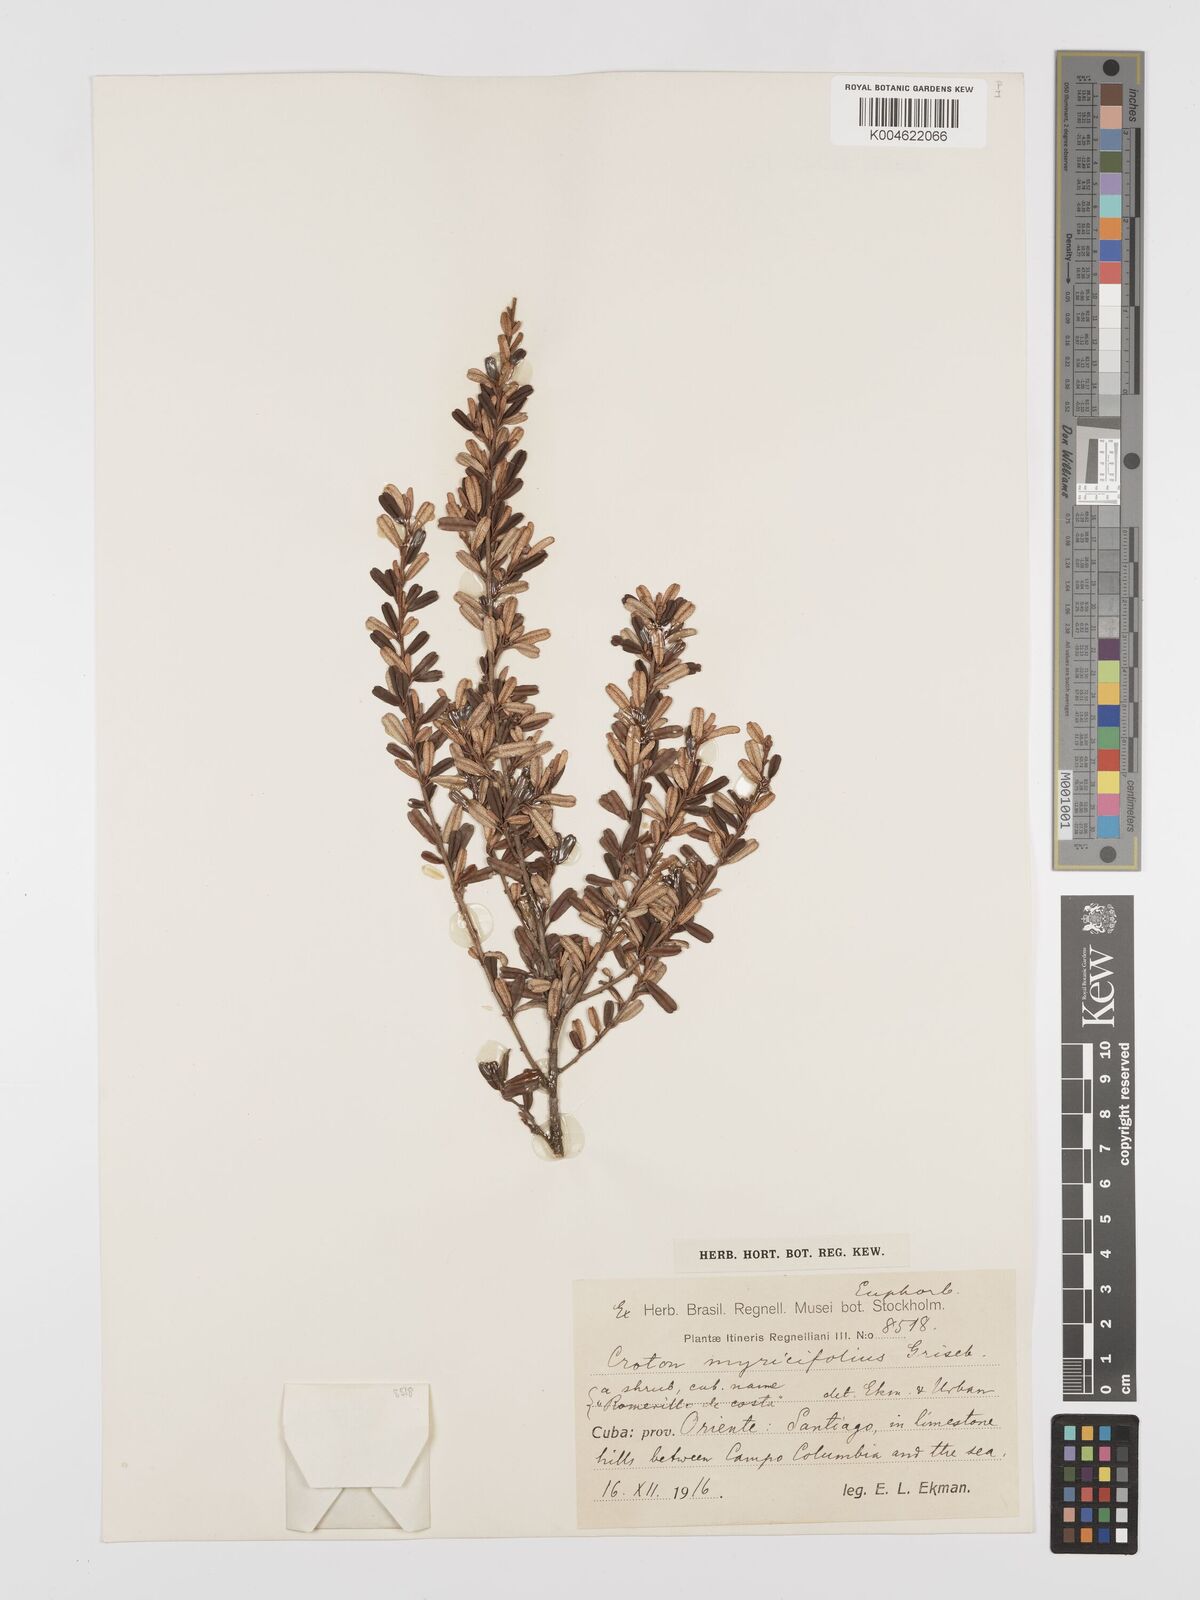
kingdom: Plantae
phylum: Tracheophyta
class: Magnoliopsida
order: Malpighiales
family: Euphorbiaceae
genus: Croton
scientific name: Croton myricifolius
